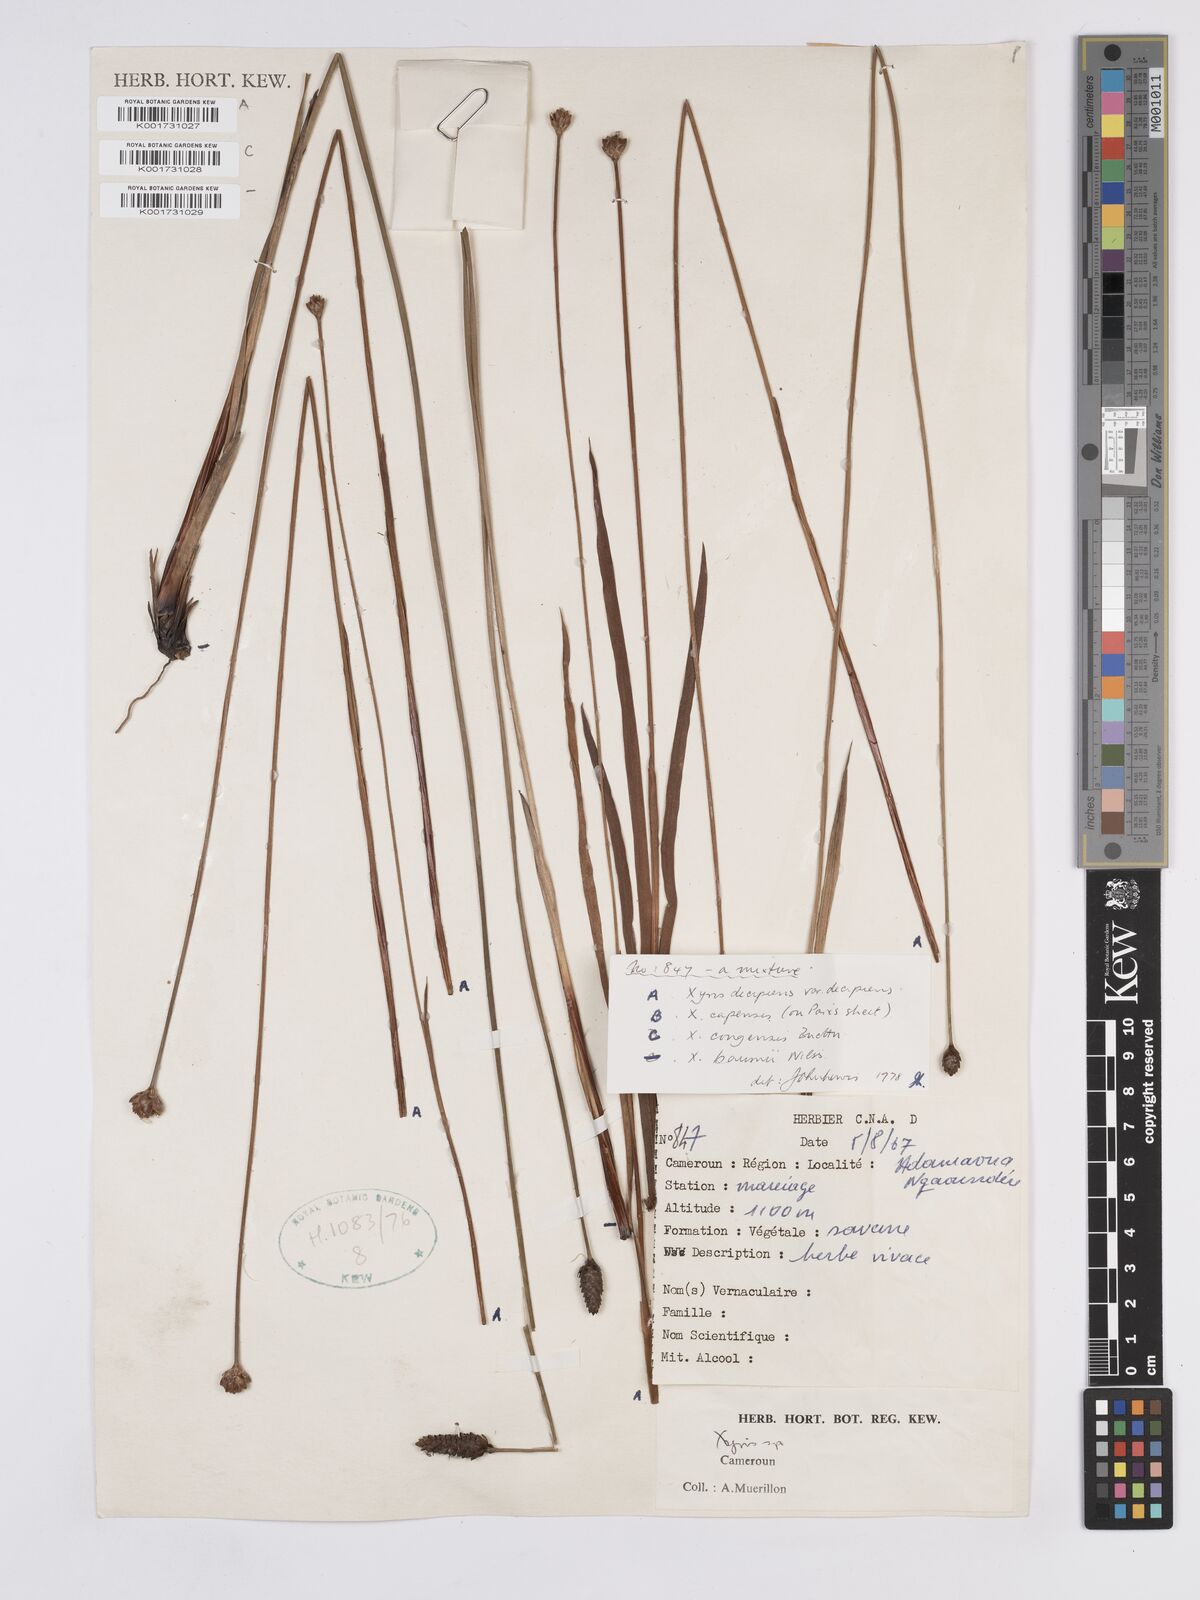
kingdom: Plantae
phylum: Tracheophyta
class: Liliopsida
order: Poales
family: Xyridaceae
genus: Xyris
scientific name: Xyris decipiens
